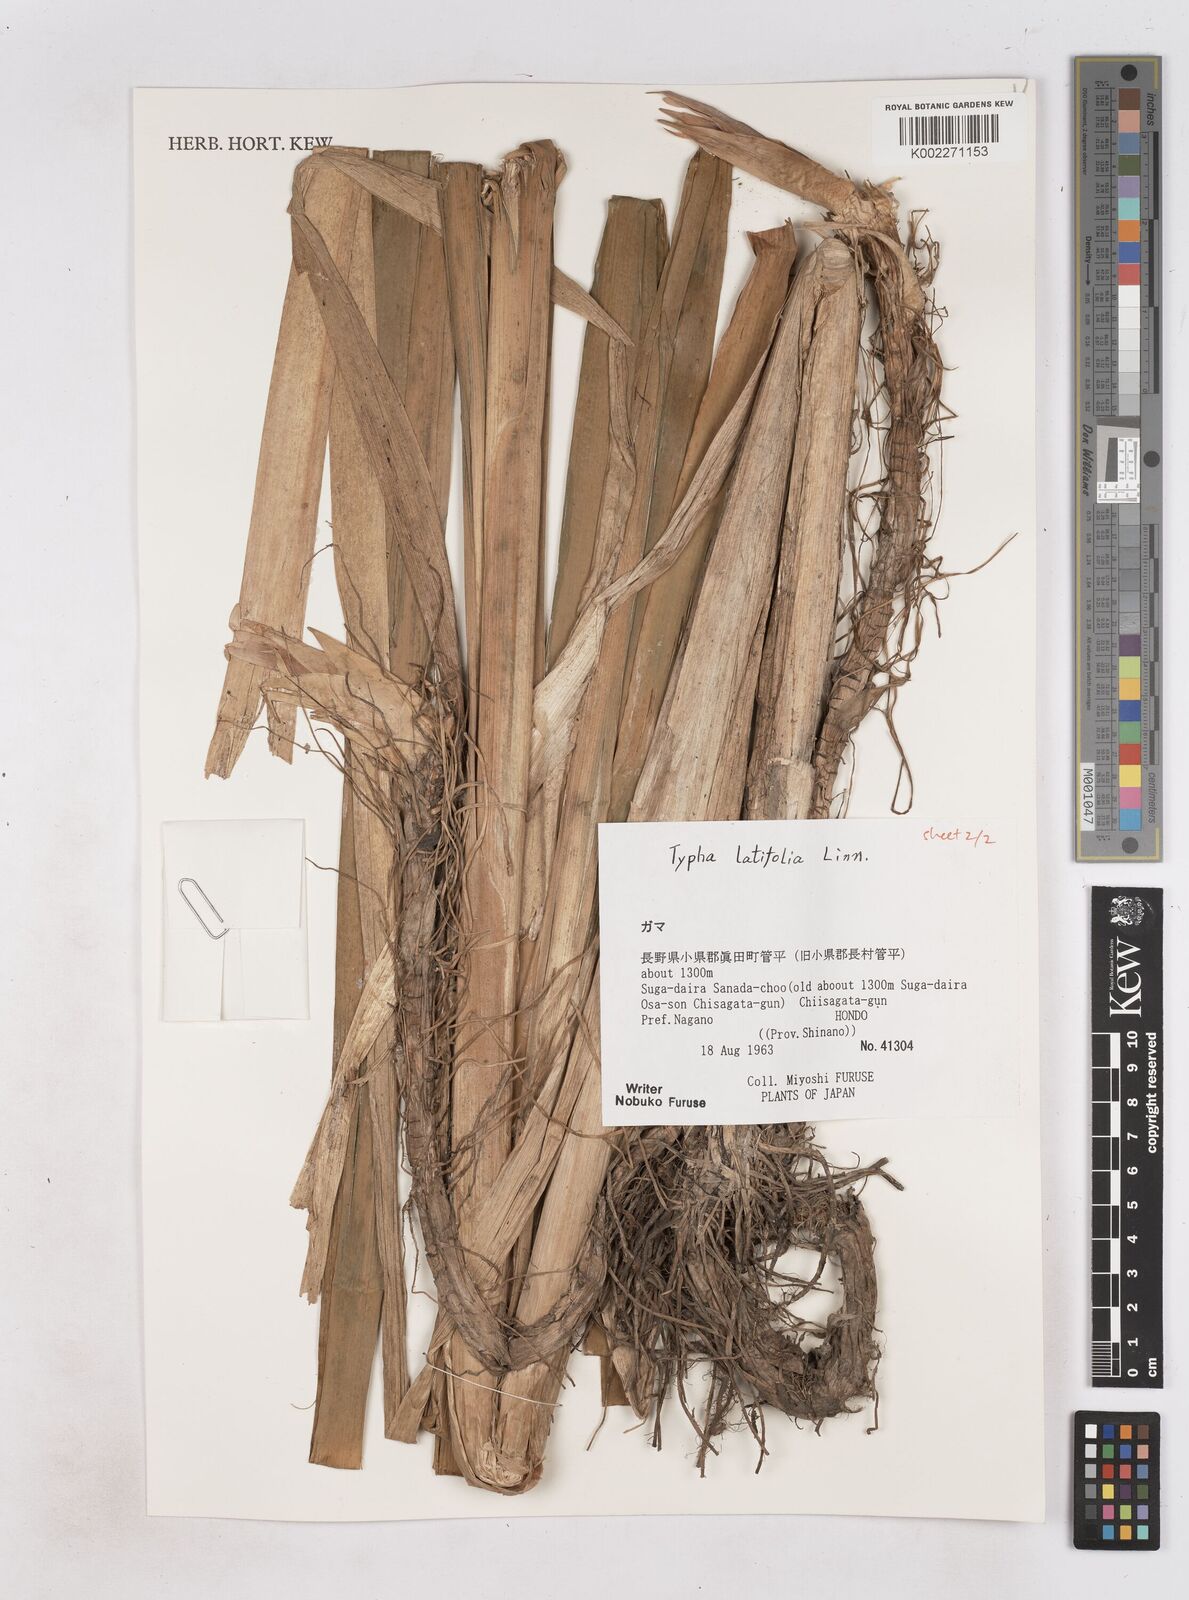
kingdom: Plantae
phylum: Tracheophyta
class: Liliopsida
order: Poales
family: Typhaceae
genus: Typha
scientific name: Typha latifolia
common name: Broadleaf cattail
